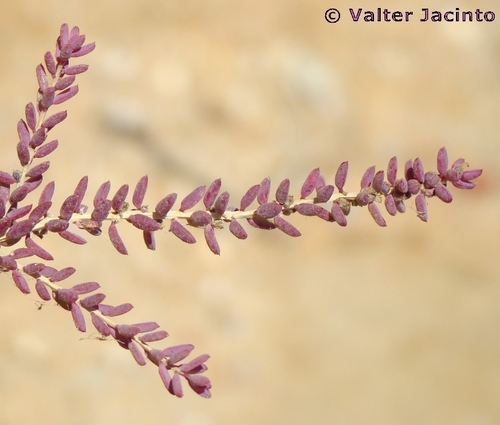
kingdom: Plantae
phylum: Tracheophyta
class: Magnoliopsida
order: Caryophyllales
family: Amaranthaceae
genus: Suaeda
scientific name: Suaeda vera
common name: Shrubby sea-blite
